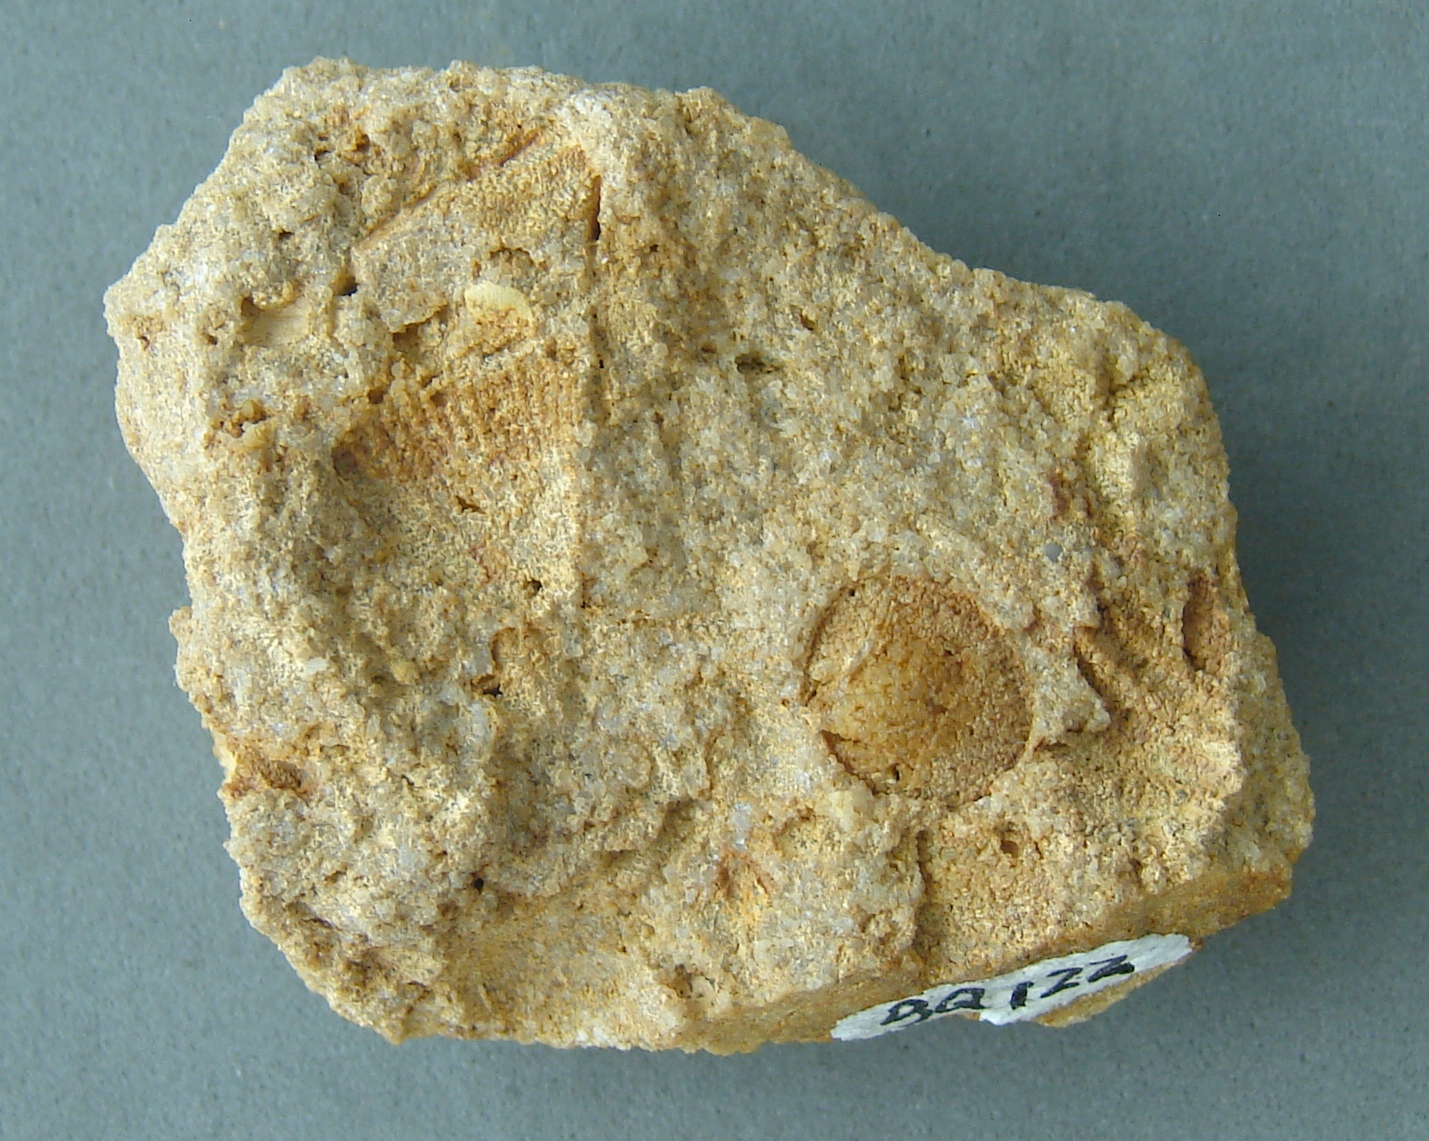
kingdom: Animalia
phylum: Brachiopoda
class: Rhynchonellata
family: Rhipidomellidae
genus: Platyorthis
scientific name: Platyorthis
